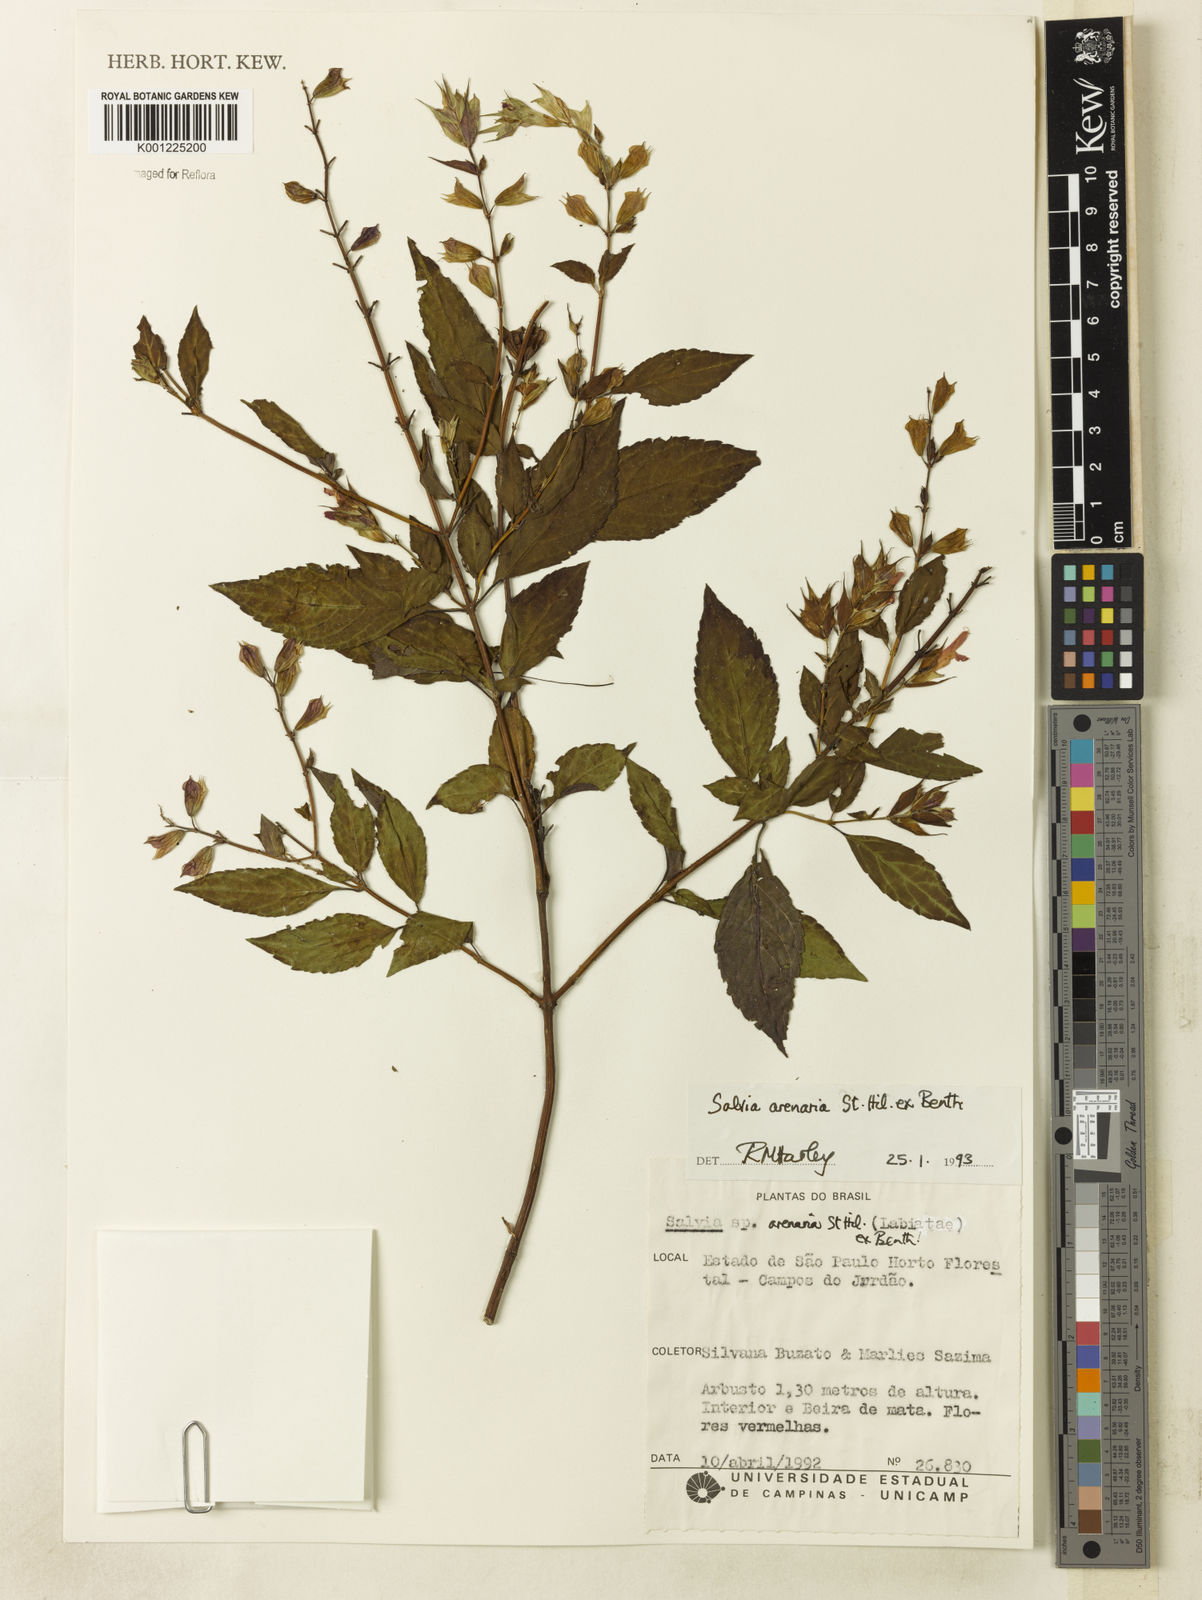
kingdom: Plantae
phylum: Tracheophyta
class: Magnoliopsida
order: Lamiales
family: Lamiaceae
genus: Salvia
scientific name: Salvia arenaria
